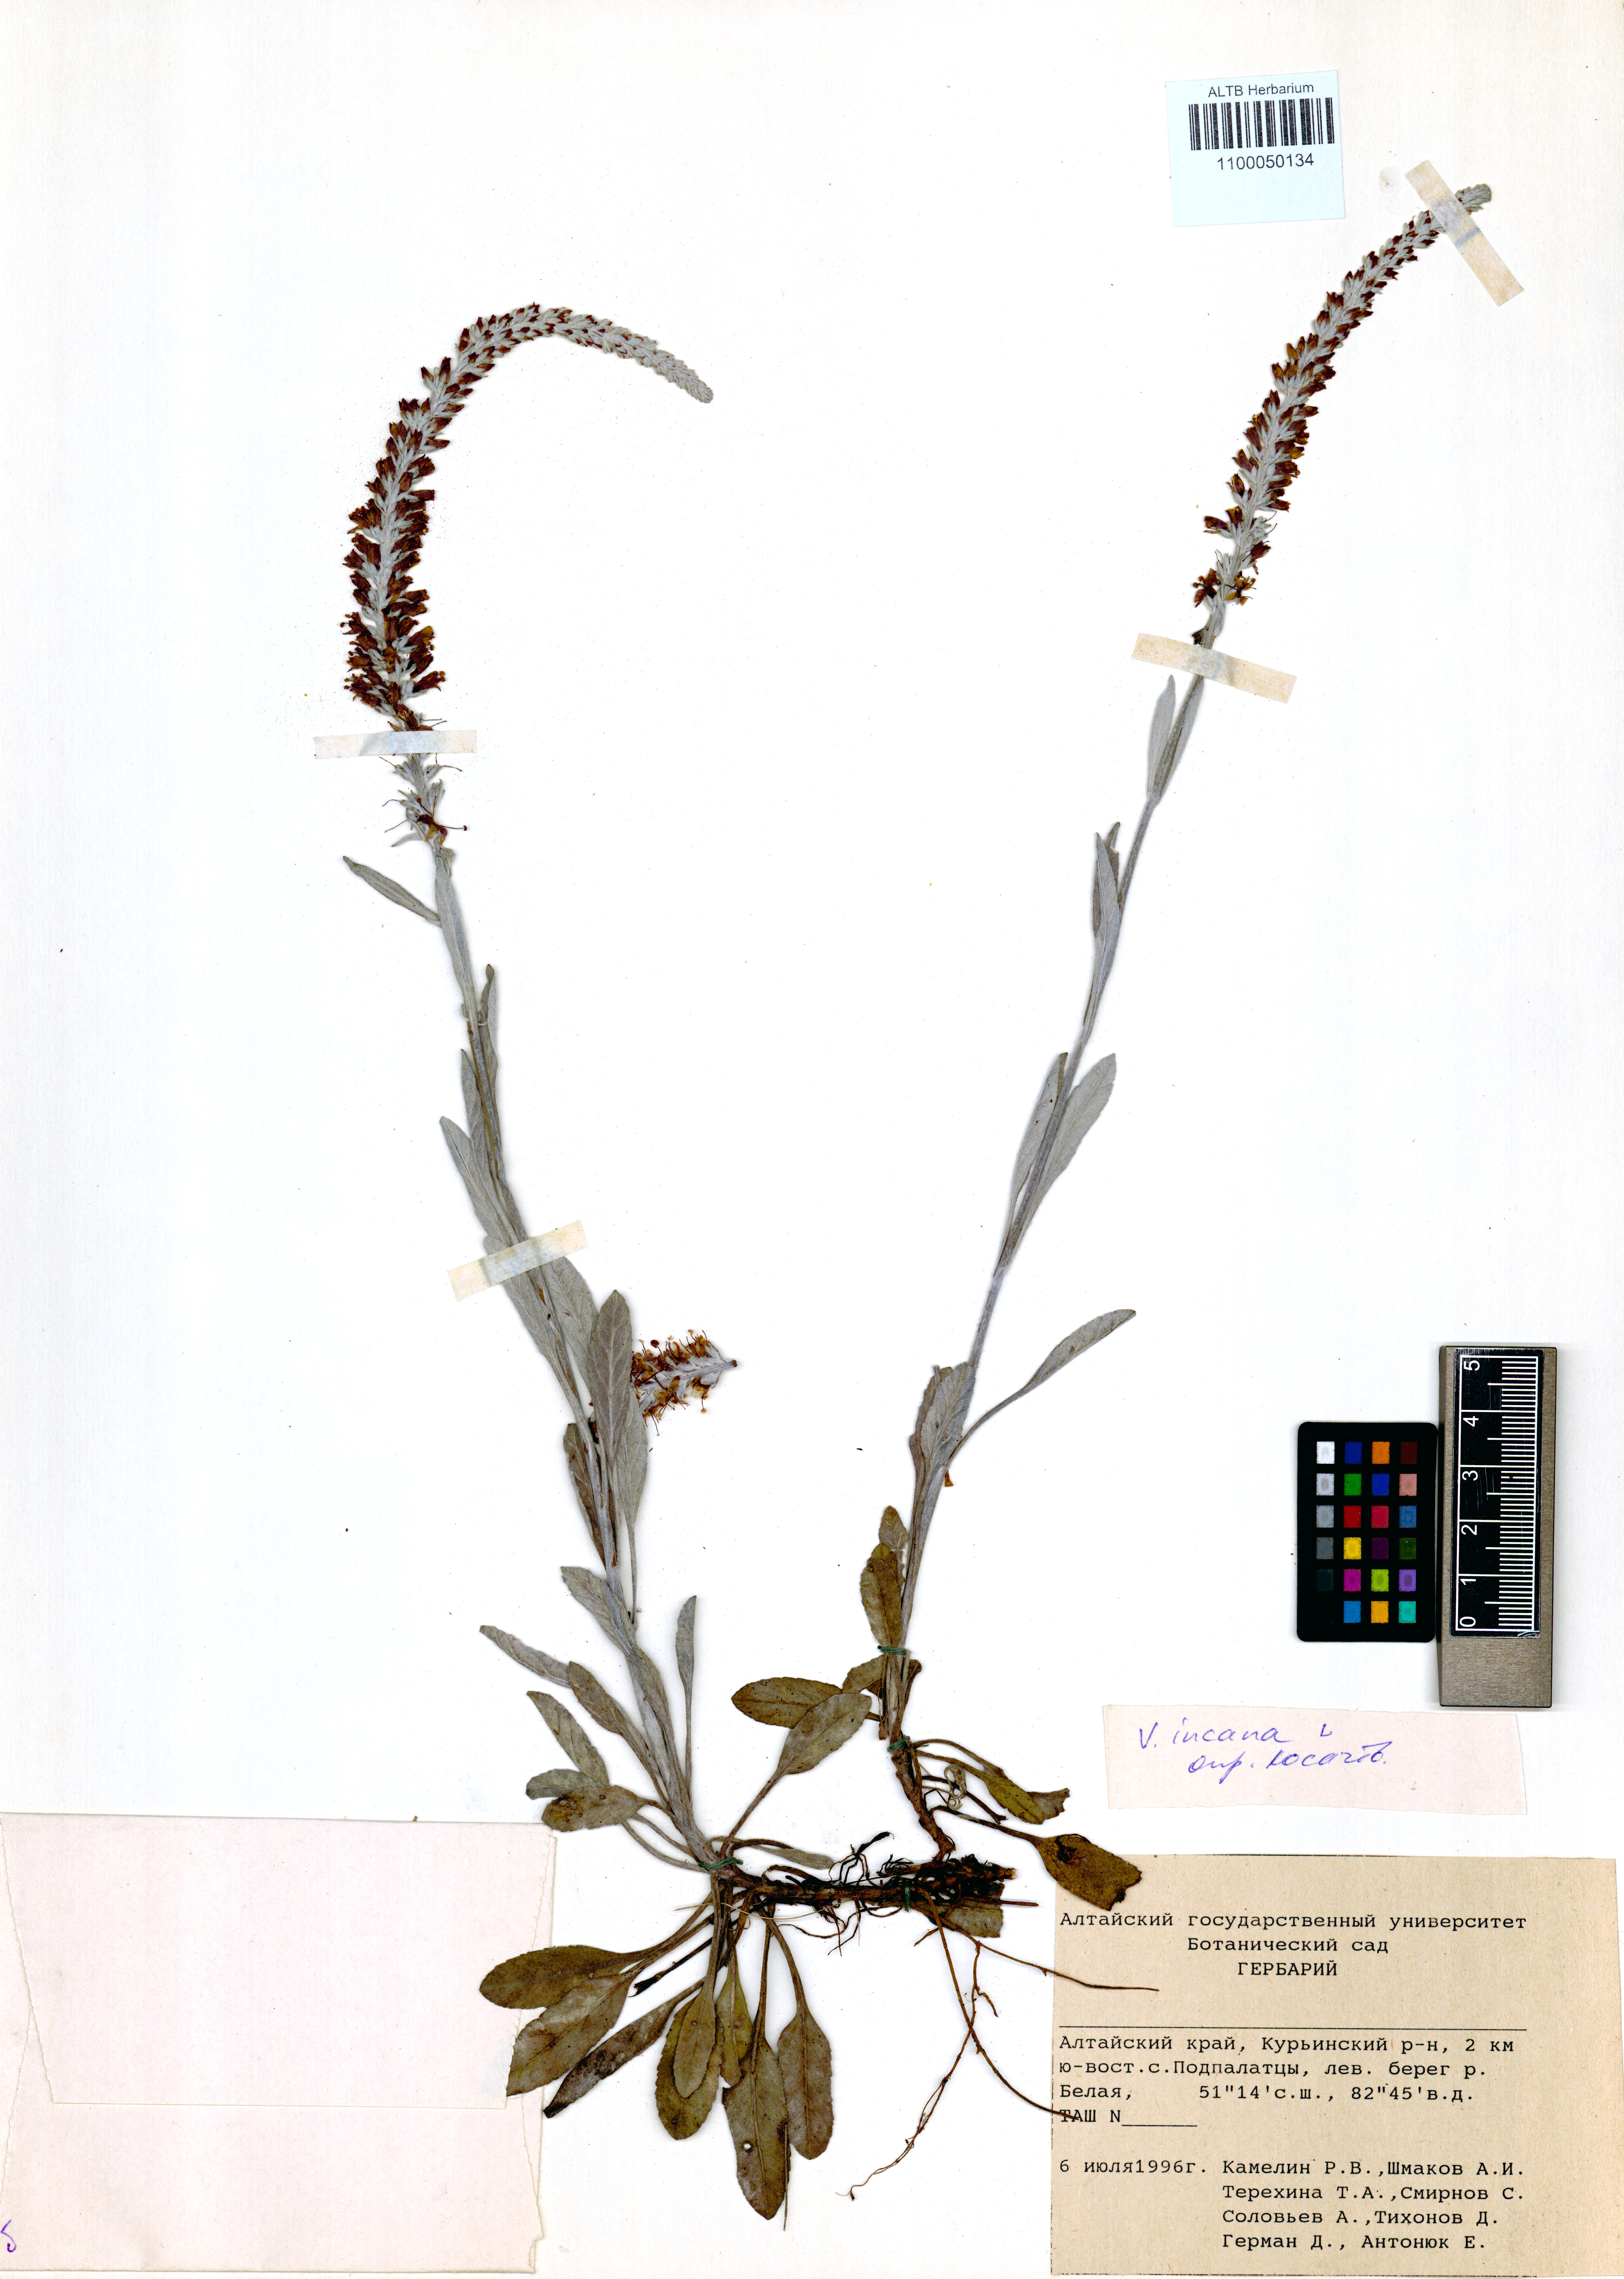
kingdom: Plantae
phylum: Tracheophyta
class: Magnoliopsida
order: Lamiales
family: Plantaginaceae
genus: Veronica
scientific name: Veronica incana
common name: Silver speedwell
